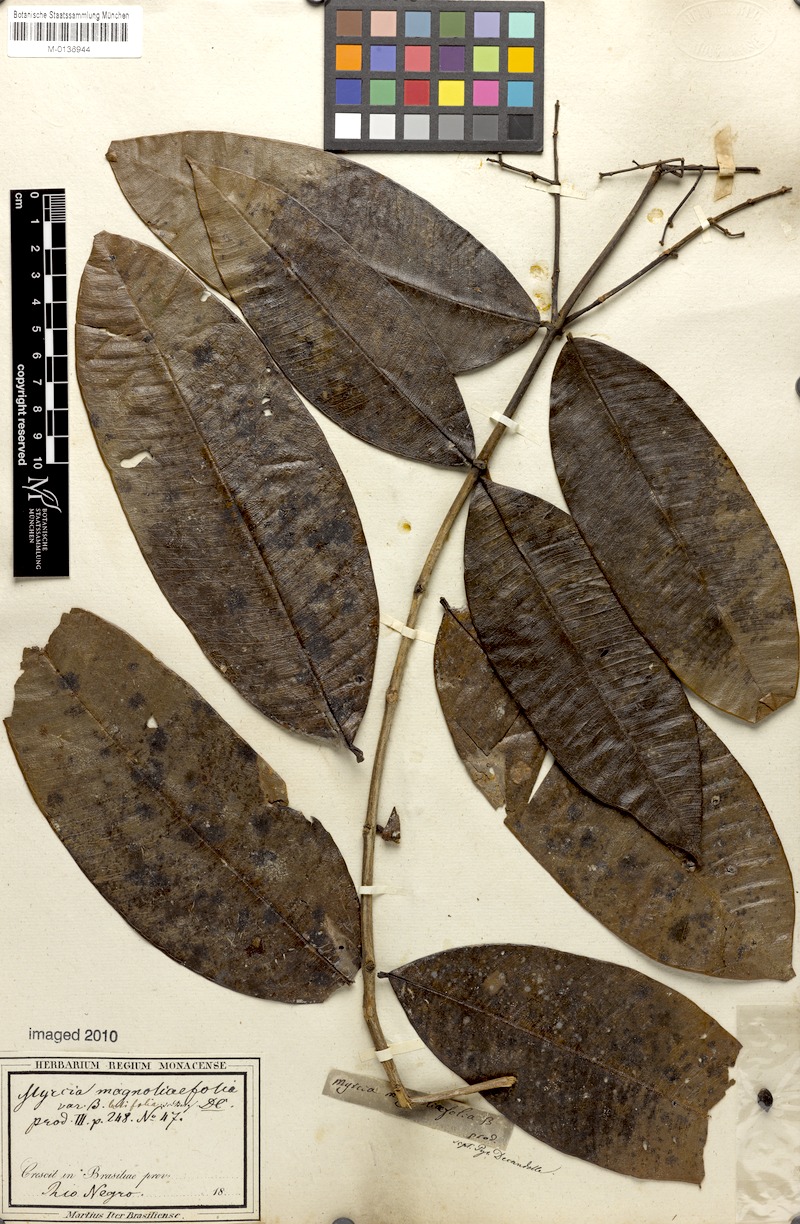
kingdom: Plantae
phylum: Tracheophyta
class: Magnoliopsida
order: Myrtales
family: Myrtaceae
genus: Myrcia
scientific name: Myrcia splendens
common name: Surinam cherry
